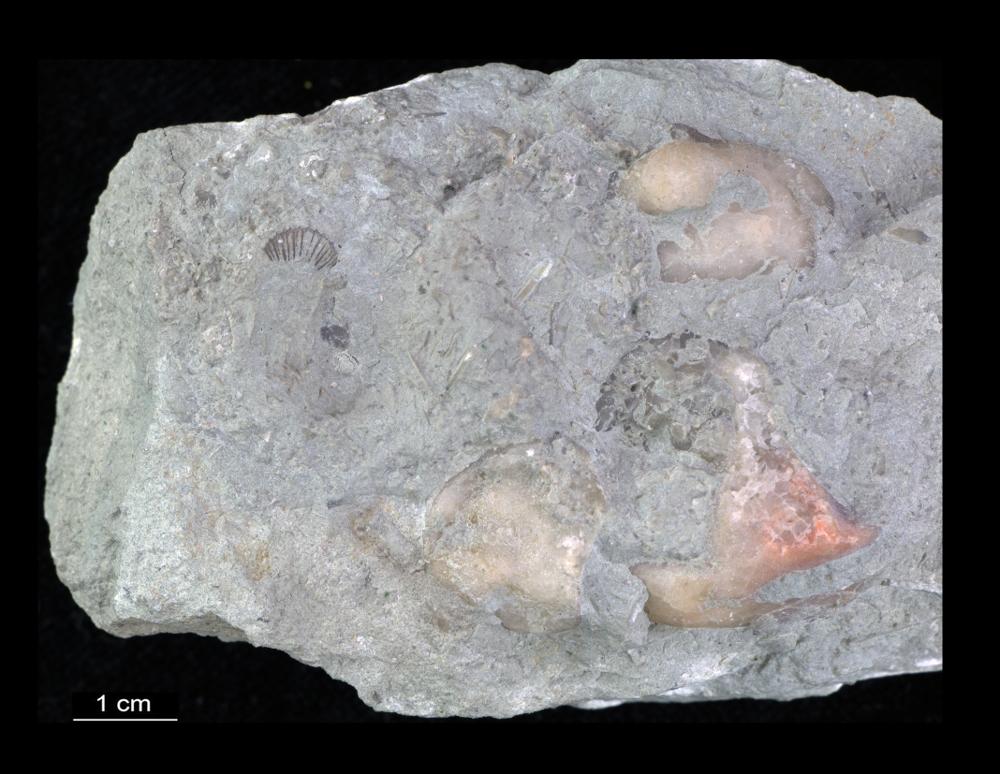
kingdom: Animalia
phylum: Brachiopoda
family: Plectambonitidae
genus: Plectella
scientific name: Plectella uncinata
